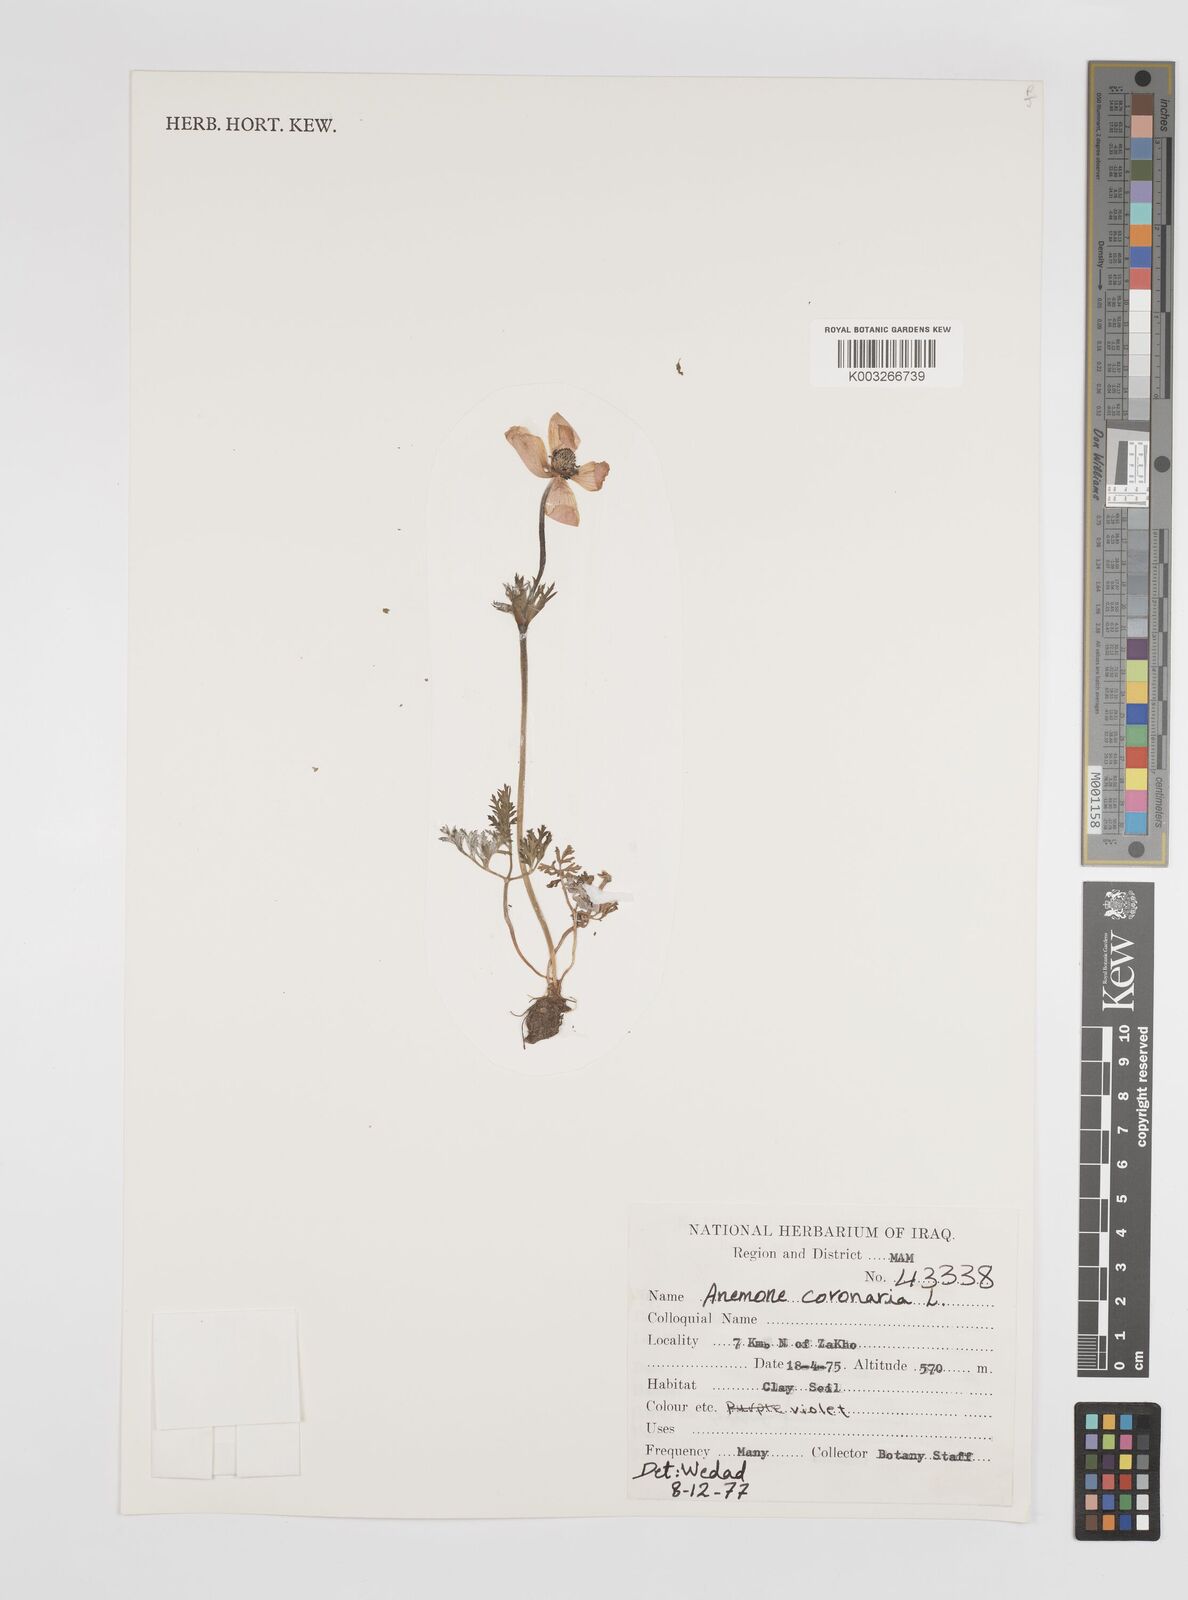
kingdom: Plantae
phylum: Tracheophyta
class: Magnoliopsida
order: Ranunculales
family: Ranunculaceae
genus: Anemone
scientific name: Anemone coronaria
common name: Poppy anemone
